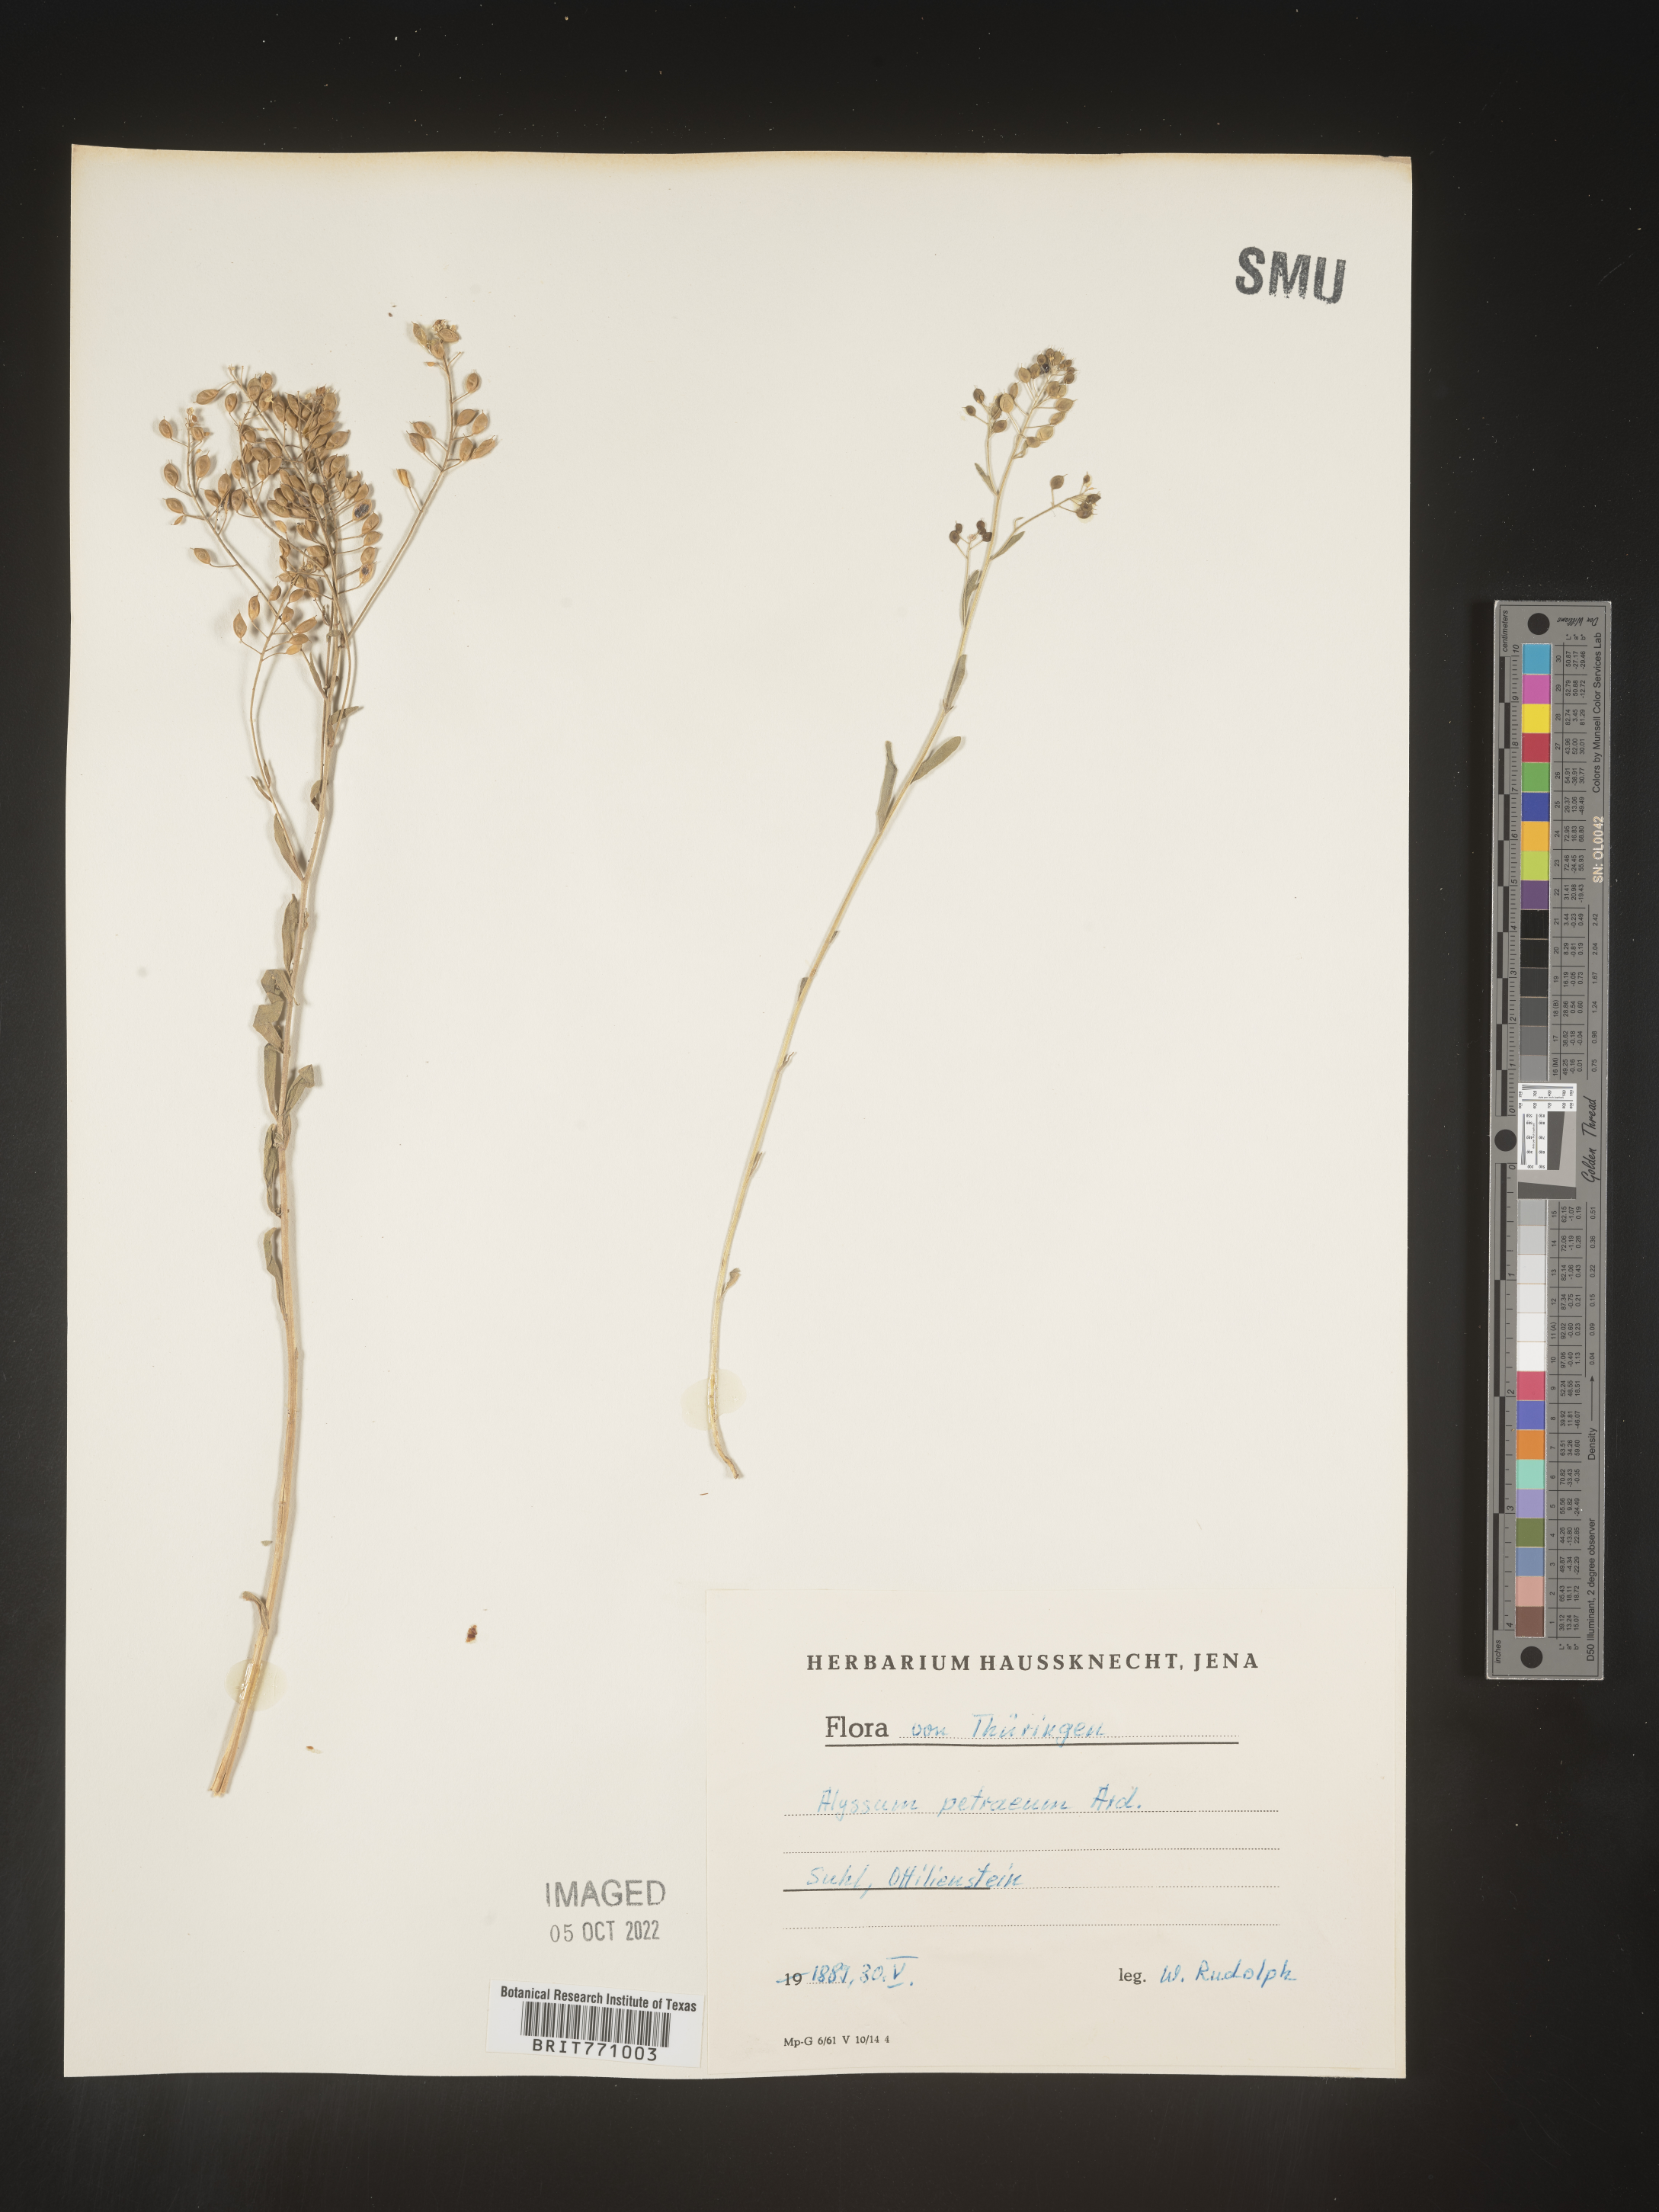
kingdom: Plantae
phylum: Tracheophyta
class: Magnoliopsida
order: Brassicales
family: Brassicaceae
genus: Alyssum
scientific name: Alyssum
